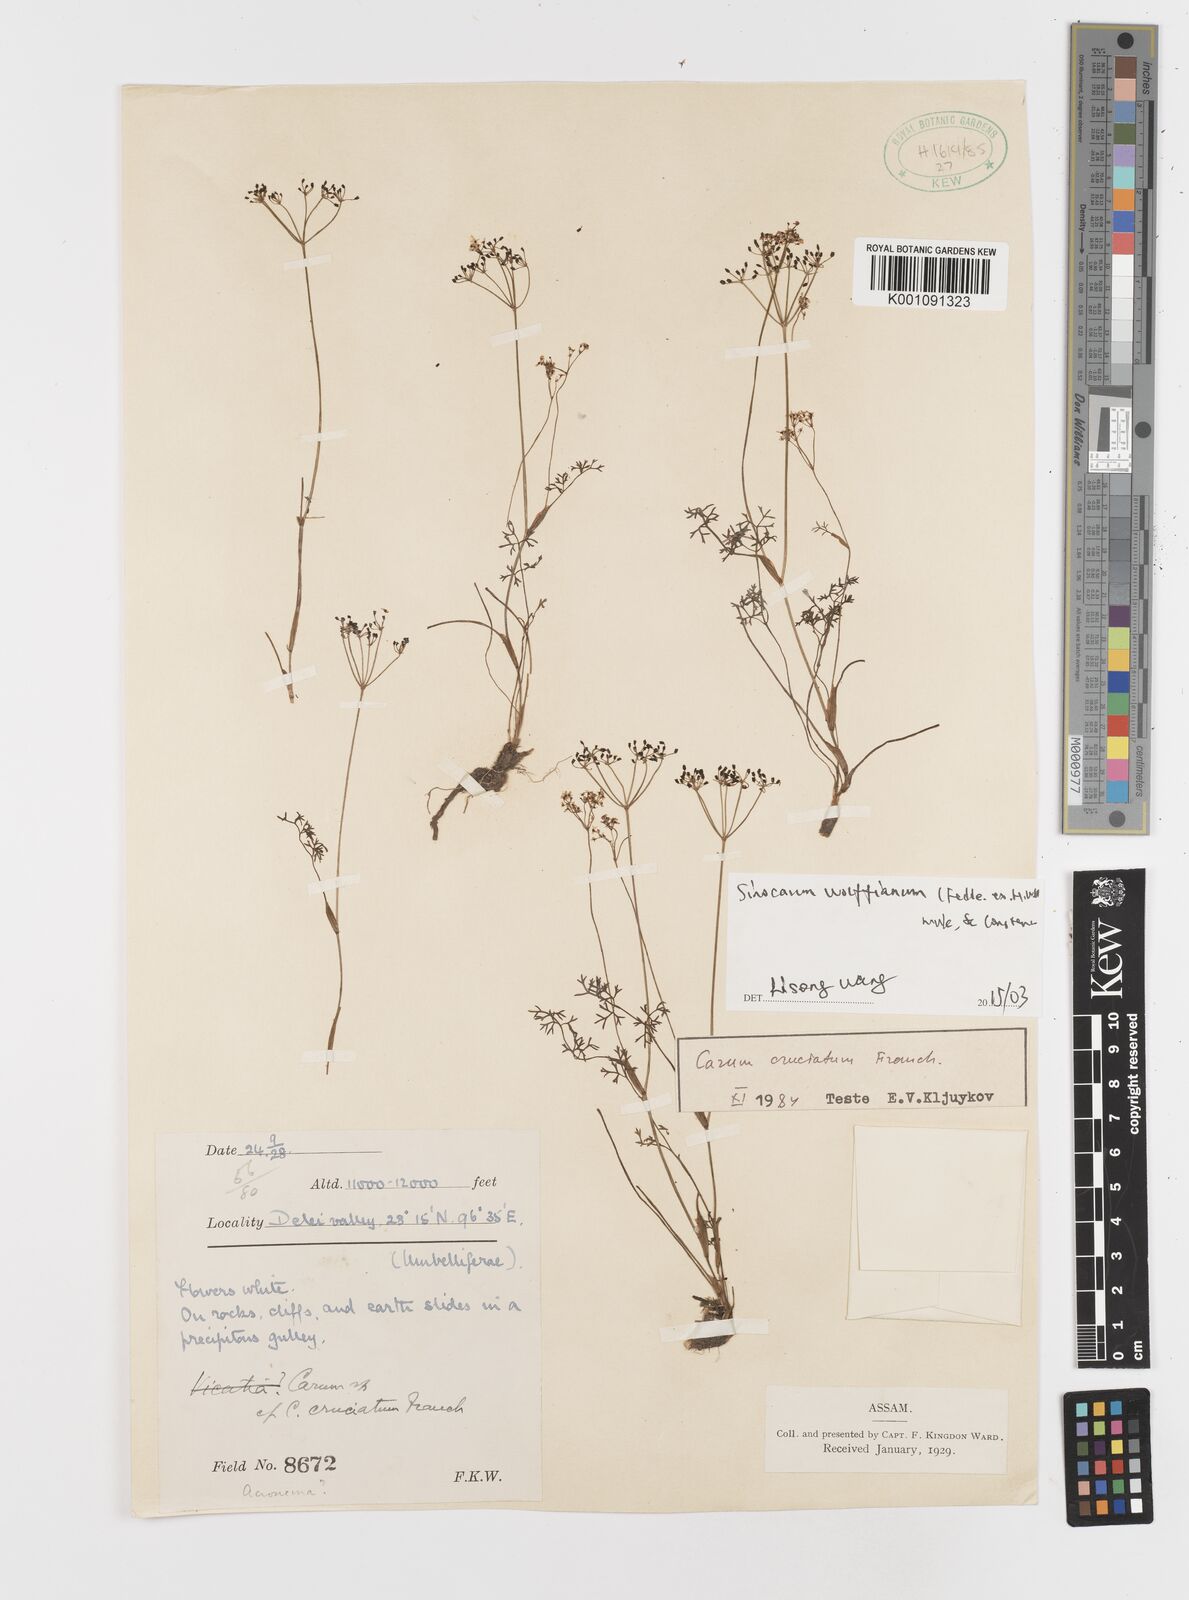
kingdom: Plantae
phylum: Tracheophyta
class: Magnoliopsida
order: Apiales
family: Apiaceae
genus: Sinocarum
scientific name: Sinocarum wolffianum
